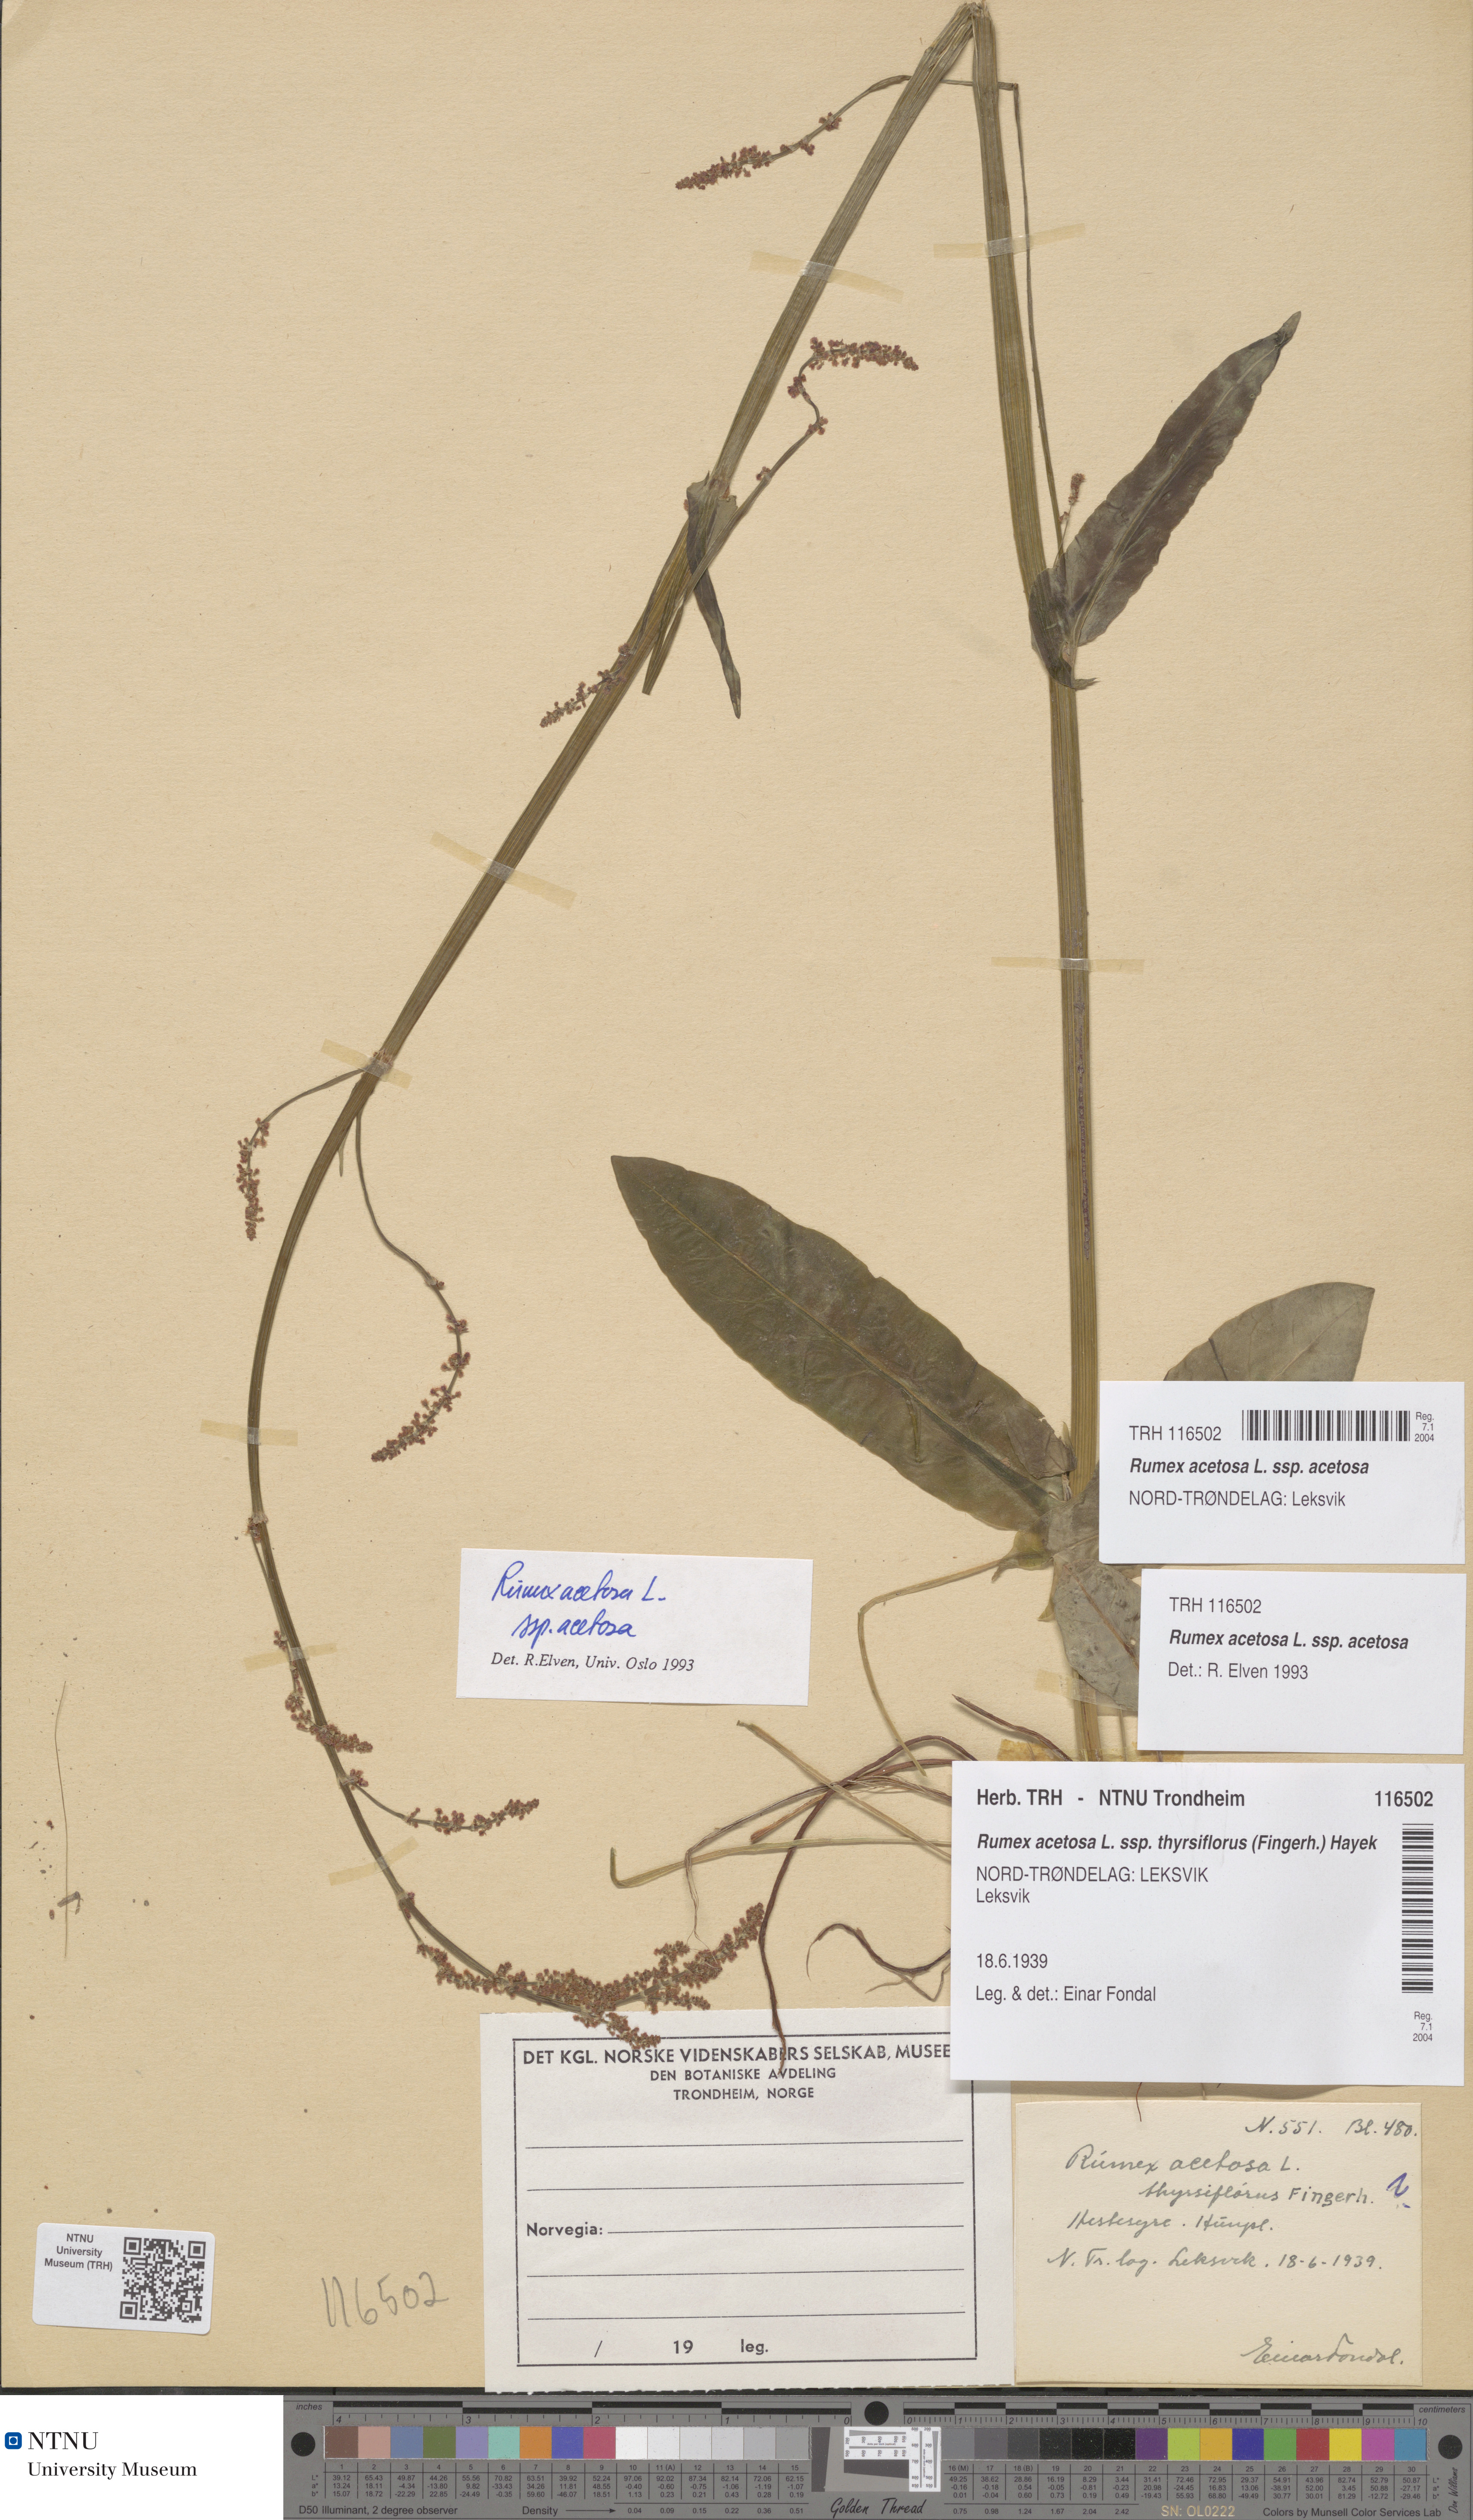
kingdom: Plantae
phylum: Tracheophyta
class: Magnoliopsida
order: Caryophyllales
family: Polygonaceae
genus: Rumex
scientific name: Rumex acetosa
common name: Garden sorrel
